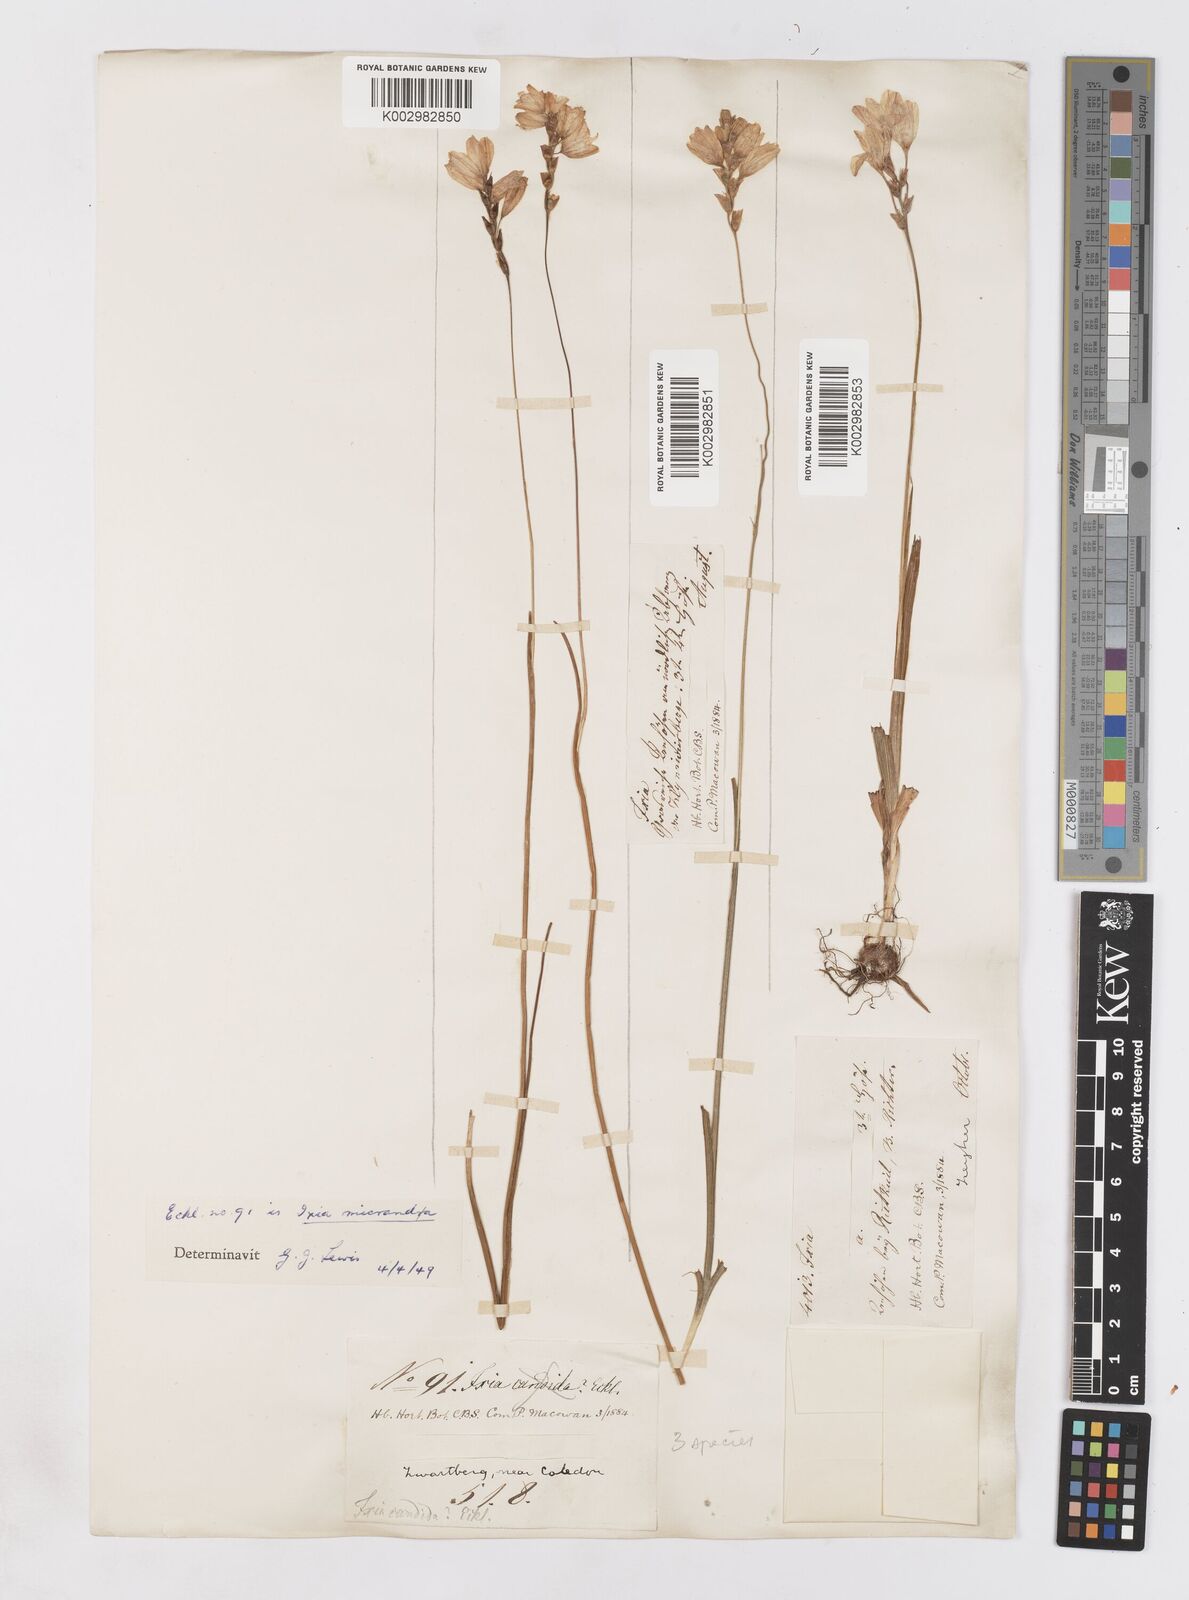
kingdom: Plantae
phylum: Tracheophyta
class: Liliopsida
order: Asparagales
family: Iridaceae
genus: Ixia
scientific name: Ixia micrandra
